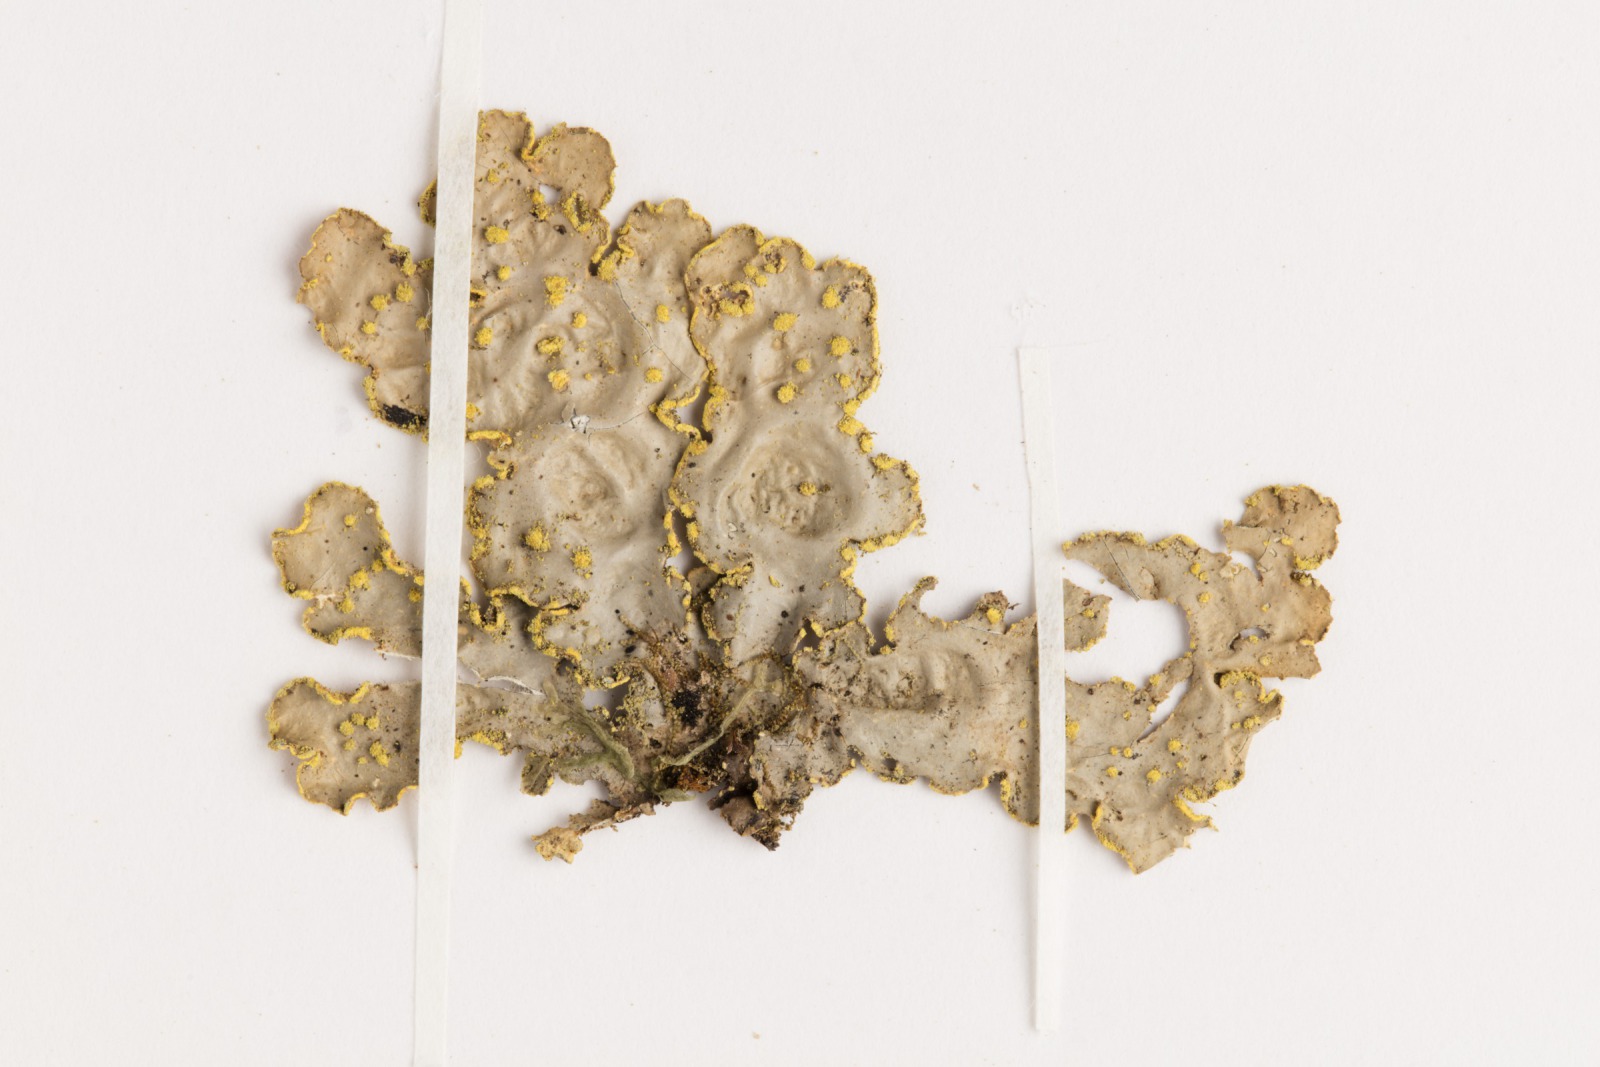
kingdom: Fungi
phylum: Ascomycota
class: Lecanoromycetes
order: Peltigerales
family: Lobariaceae
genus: Pseudocyphellaria
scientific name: Pseudocyphellaria crocata
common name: Golden specklebelly
